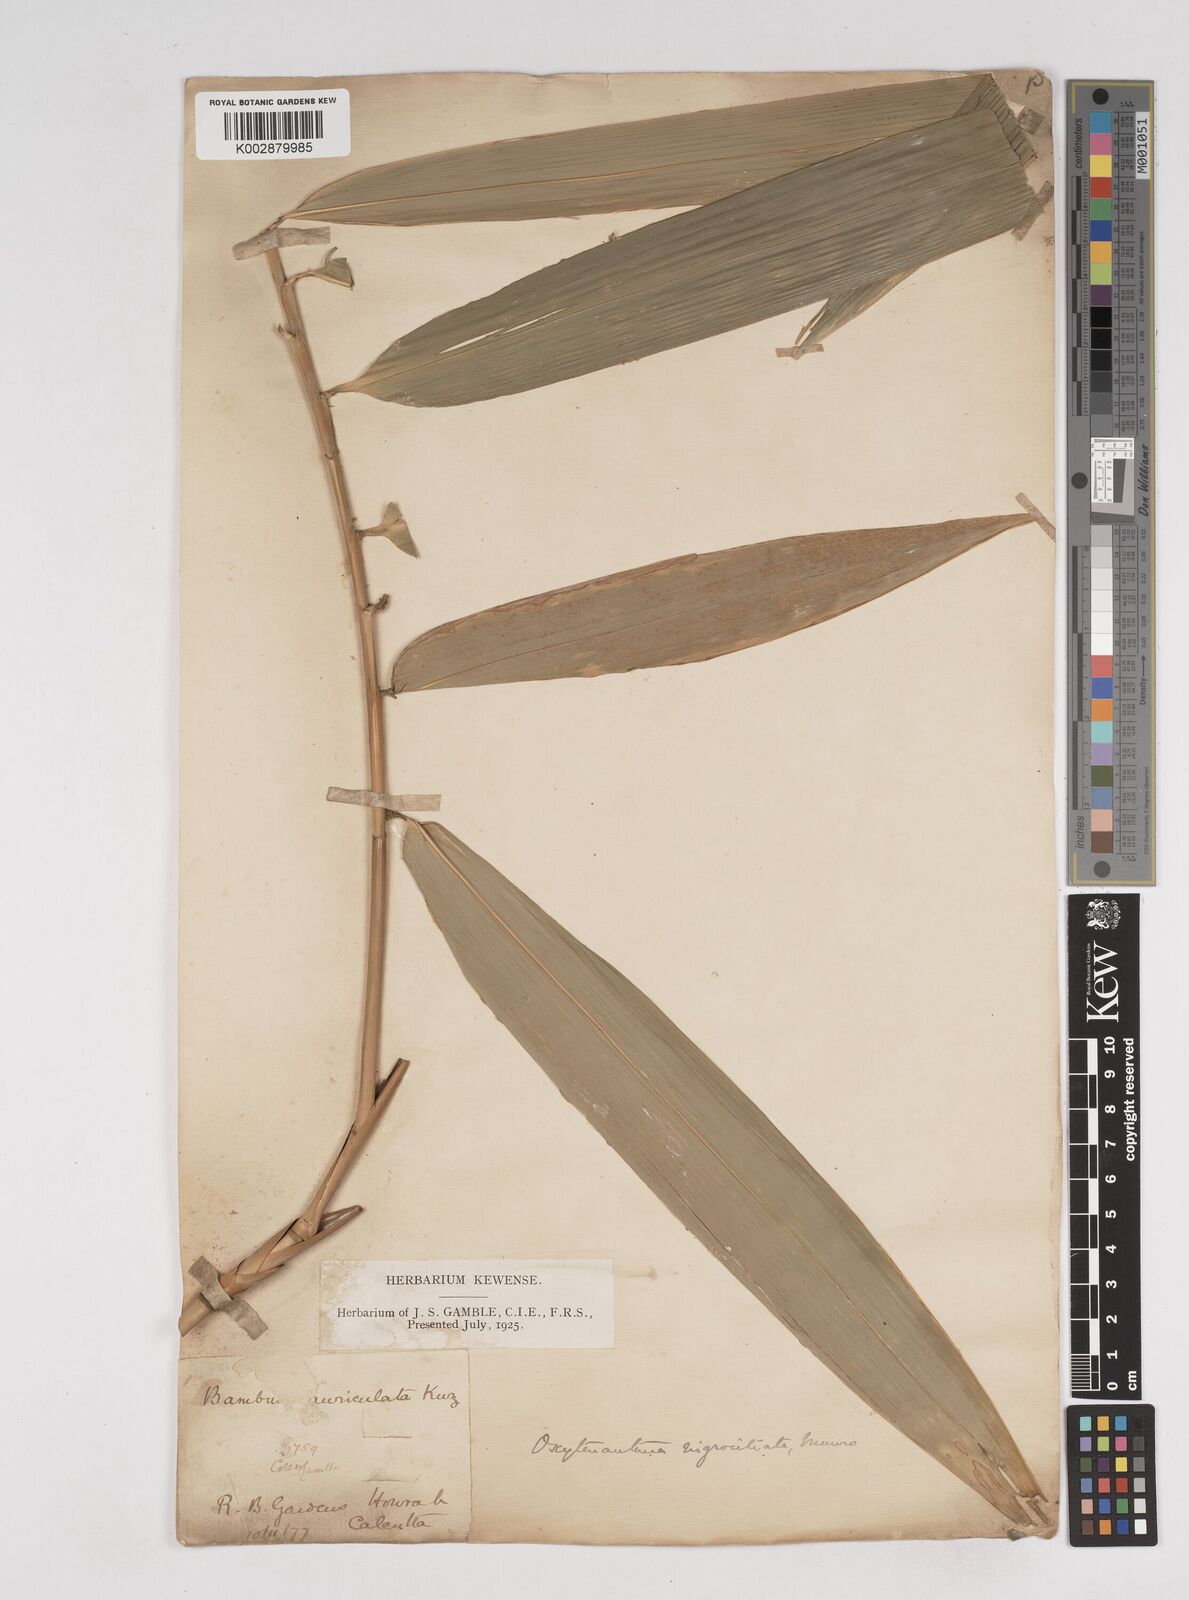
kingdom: Plantae
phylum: Tracheophyta
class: Liliopsida
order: Poales
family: Poaceae
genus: Gigantochloa
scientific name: Gigantochloa nigrociliata
